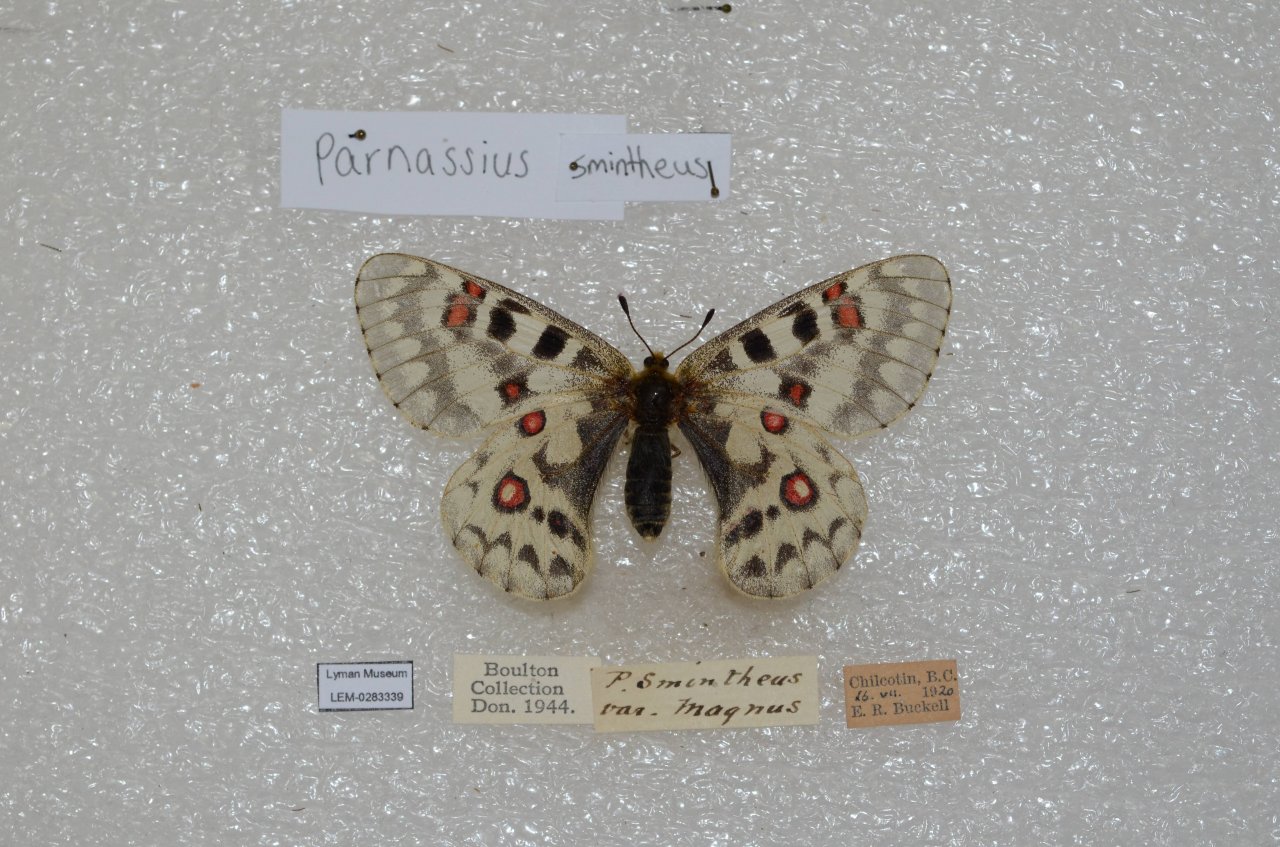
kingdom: Animalia
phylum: Arthropoda
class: Insecta
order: Lepidoptera
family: Papilionidae
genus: Parnassius
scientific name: Parnassius smintheus
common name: Rocky Mountain Parnassian
